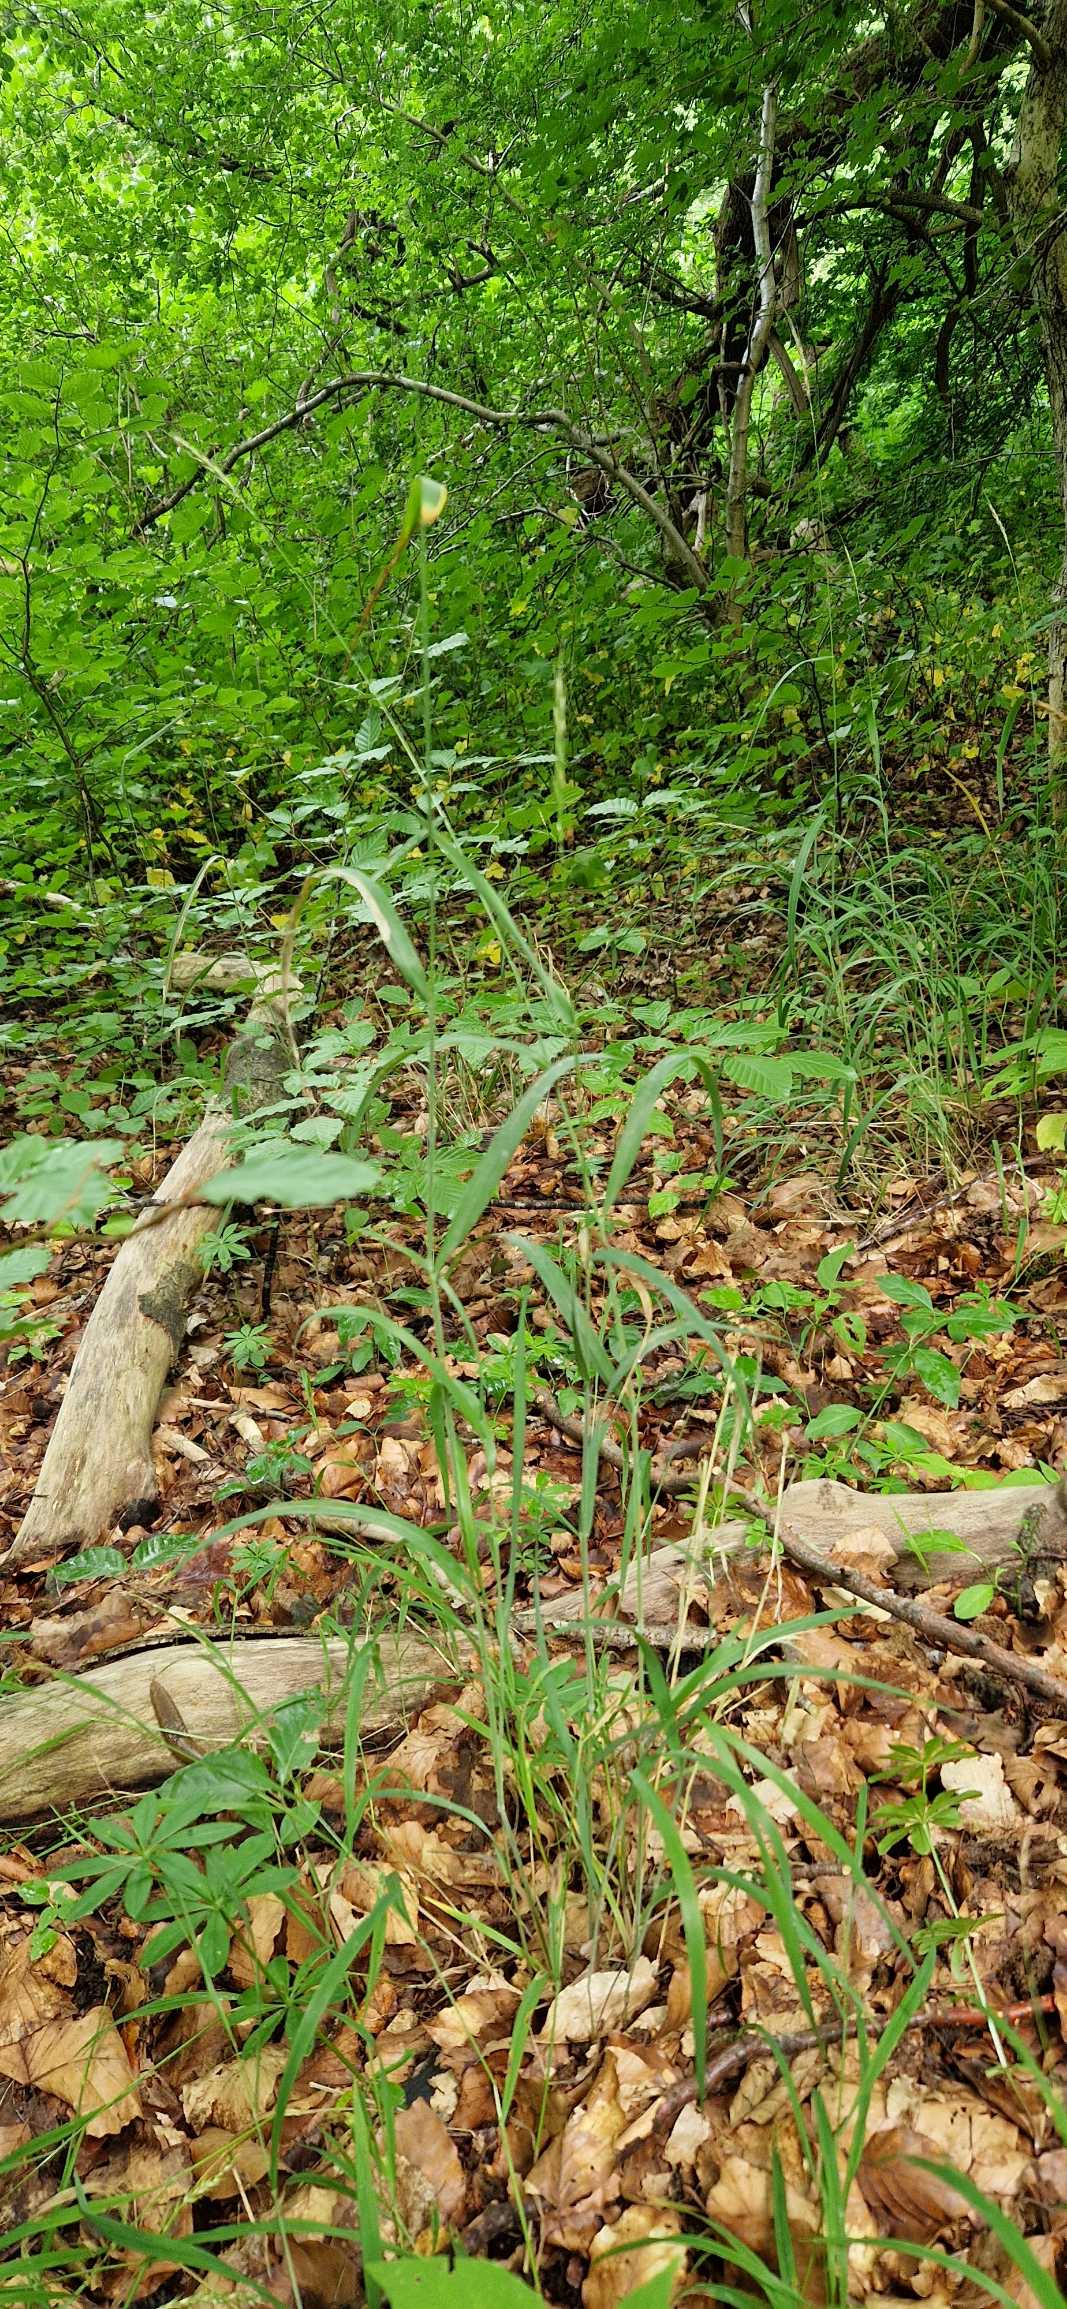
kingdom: Plantae
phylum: Tracheophyta
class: Liliopsida
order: Poales
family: Poaceae
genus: Elymus
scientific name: Elymus caninus
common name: Hundekvik
